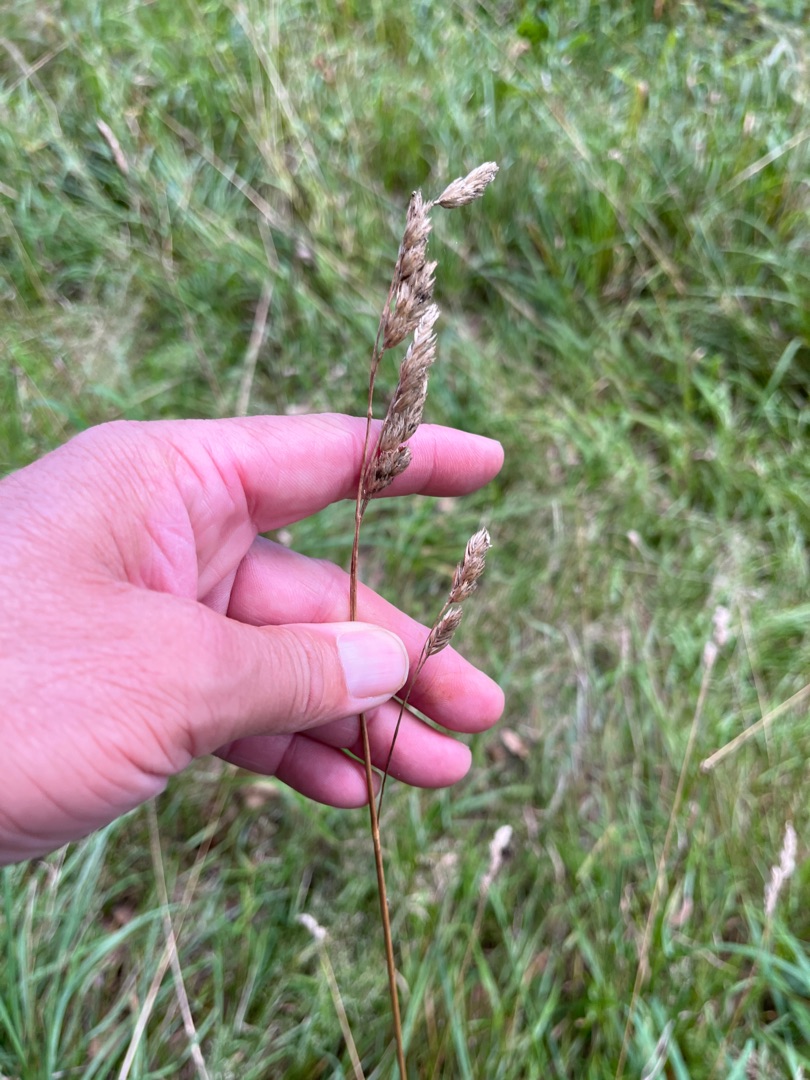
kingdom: Plantae
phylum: Tracheophyta
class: Liliopsida
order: Poales
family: Poaceae
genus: Dactylis
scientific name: Dactylis glomerata
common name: Almindelig hundegræs
